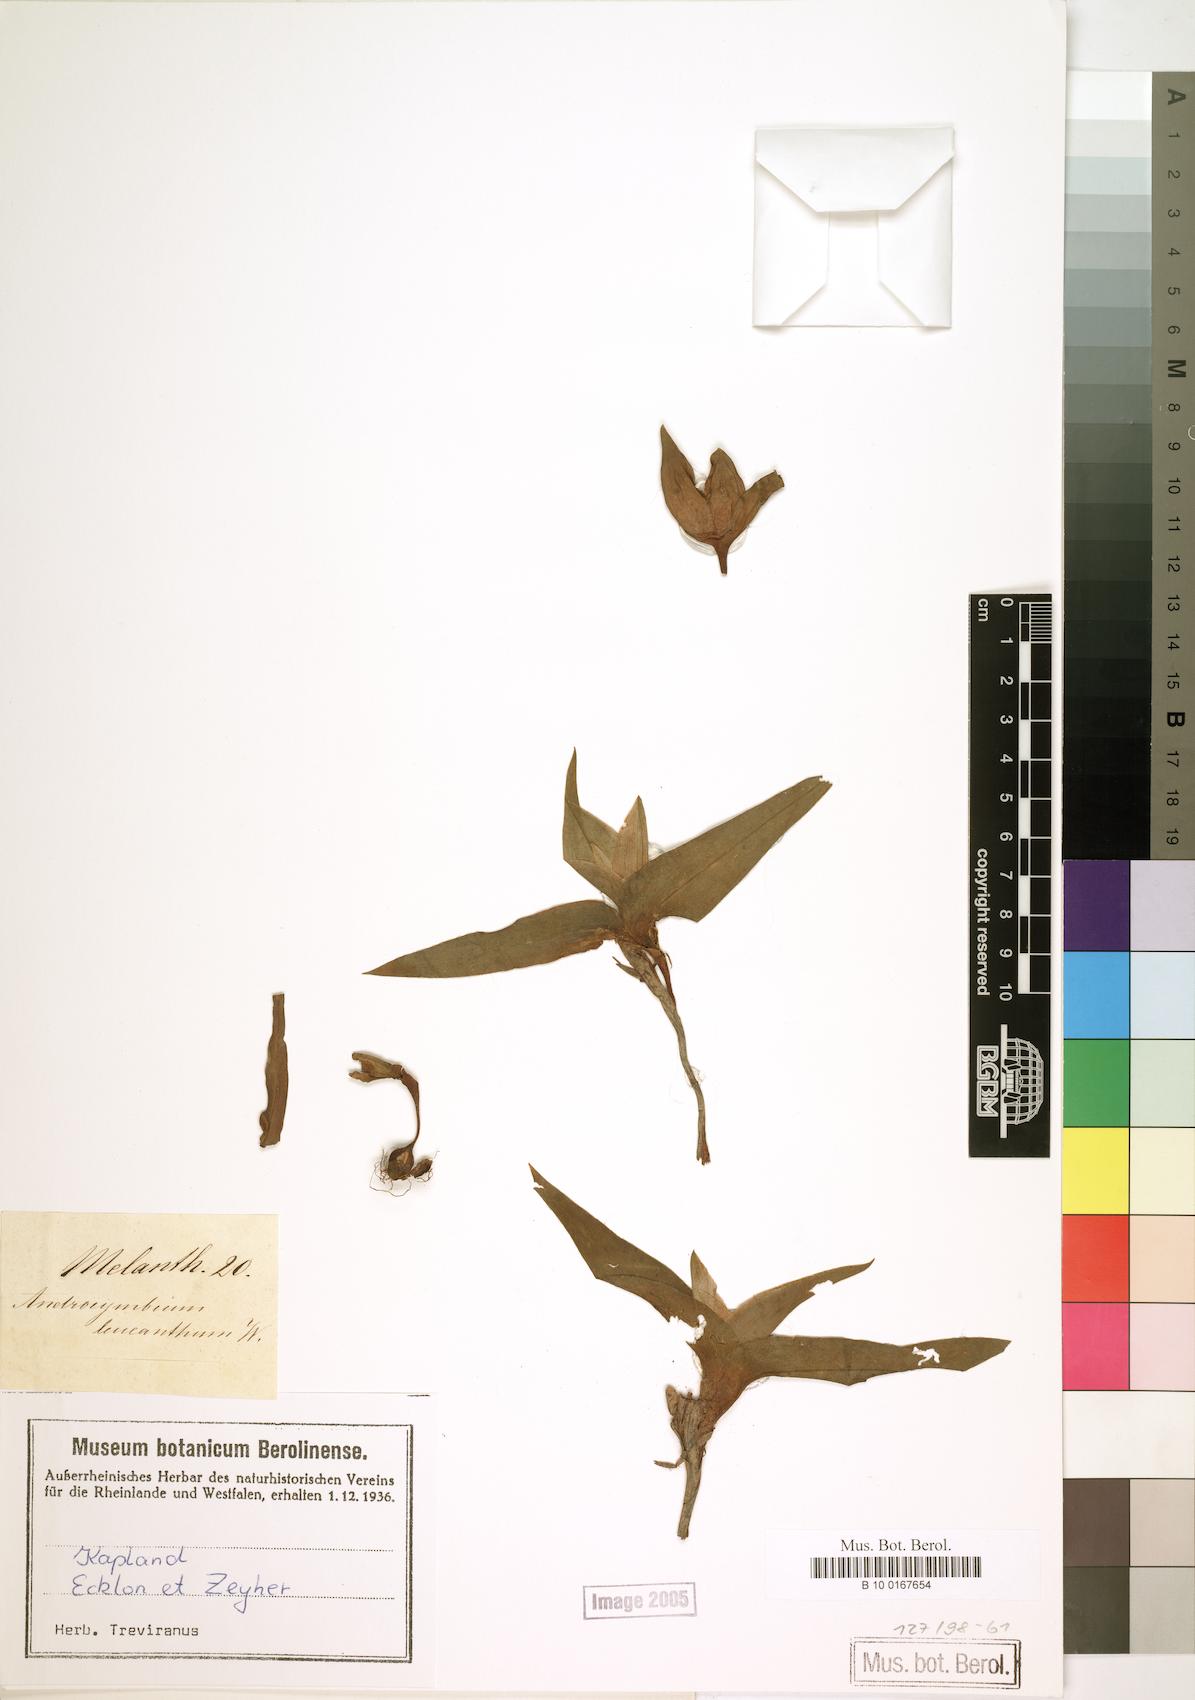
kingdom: Plantae
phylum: Tracheophyta
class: Liliopsida
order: Liliales
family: Colchicaceae
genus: Colchicum
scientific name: Colchicum capense
